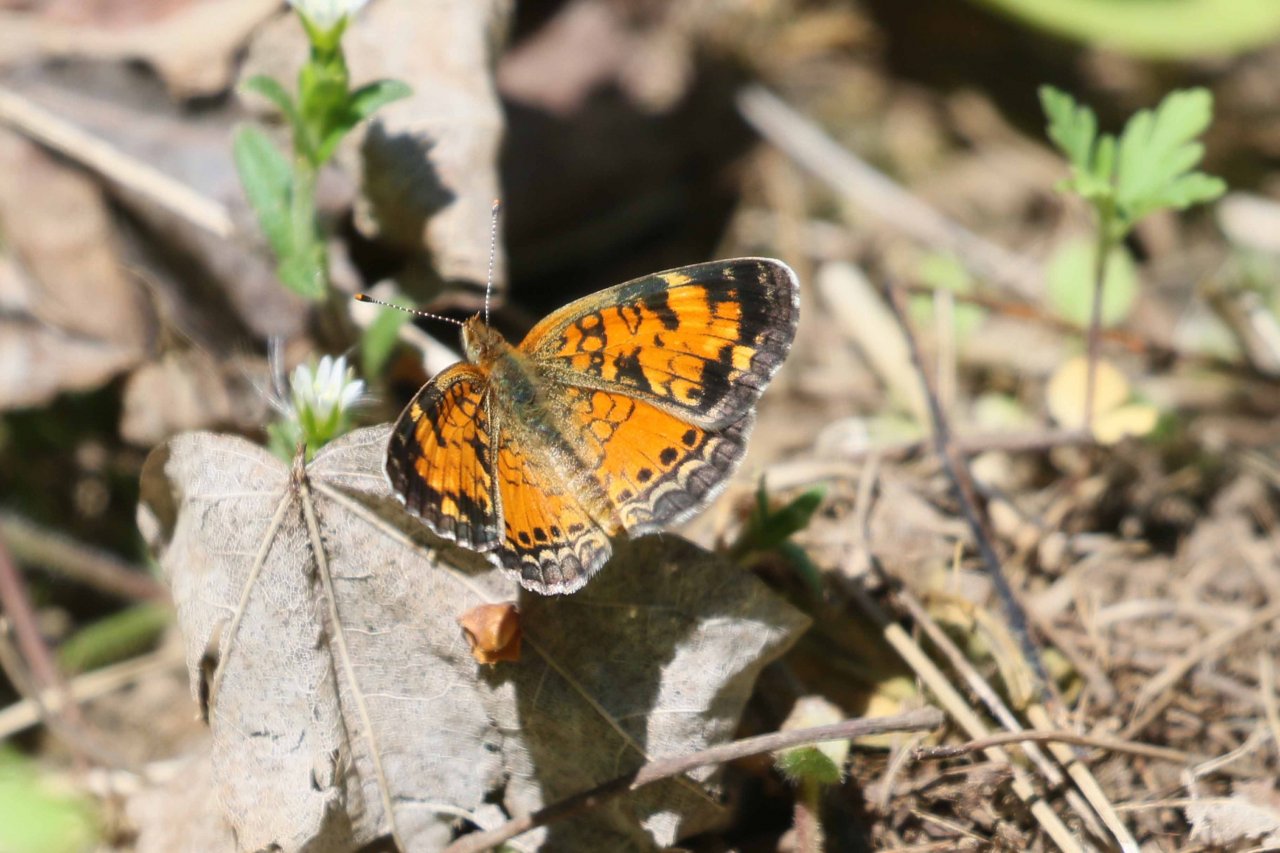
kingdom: Animalia
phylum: Arthropoda
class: Insecta
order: Lepidoptera
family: Nymphalidae
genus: Phyciodes
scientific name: Phyciodes tharos
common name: Northern Crescent
